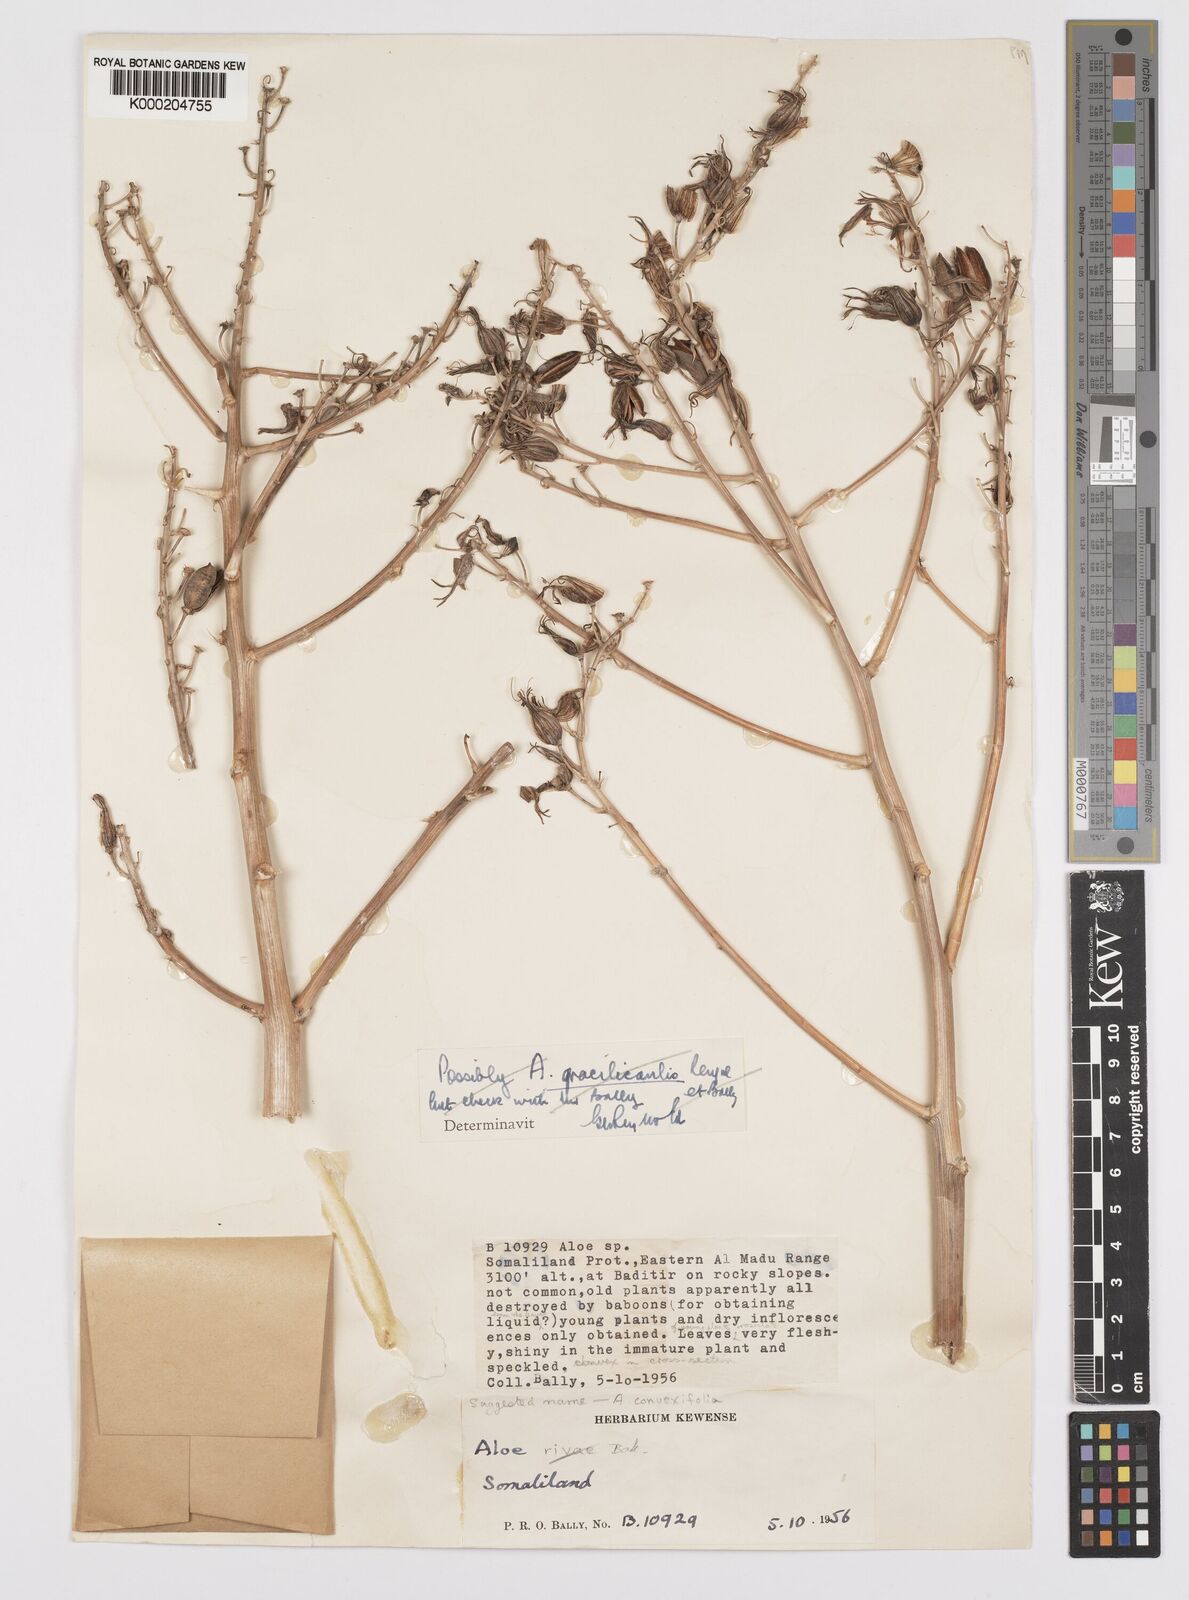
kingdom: Plantae
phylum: Tracheophyta
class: Liliopsida
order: Asparagales
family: Asphodelaceae
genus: Aloe
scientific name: Aloe medishiana
